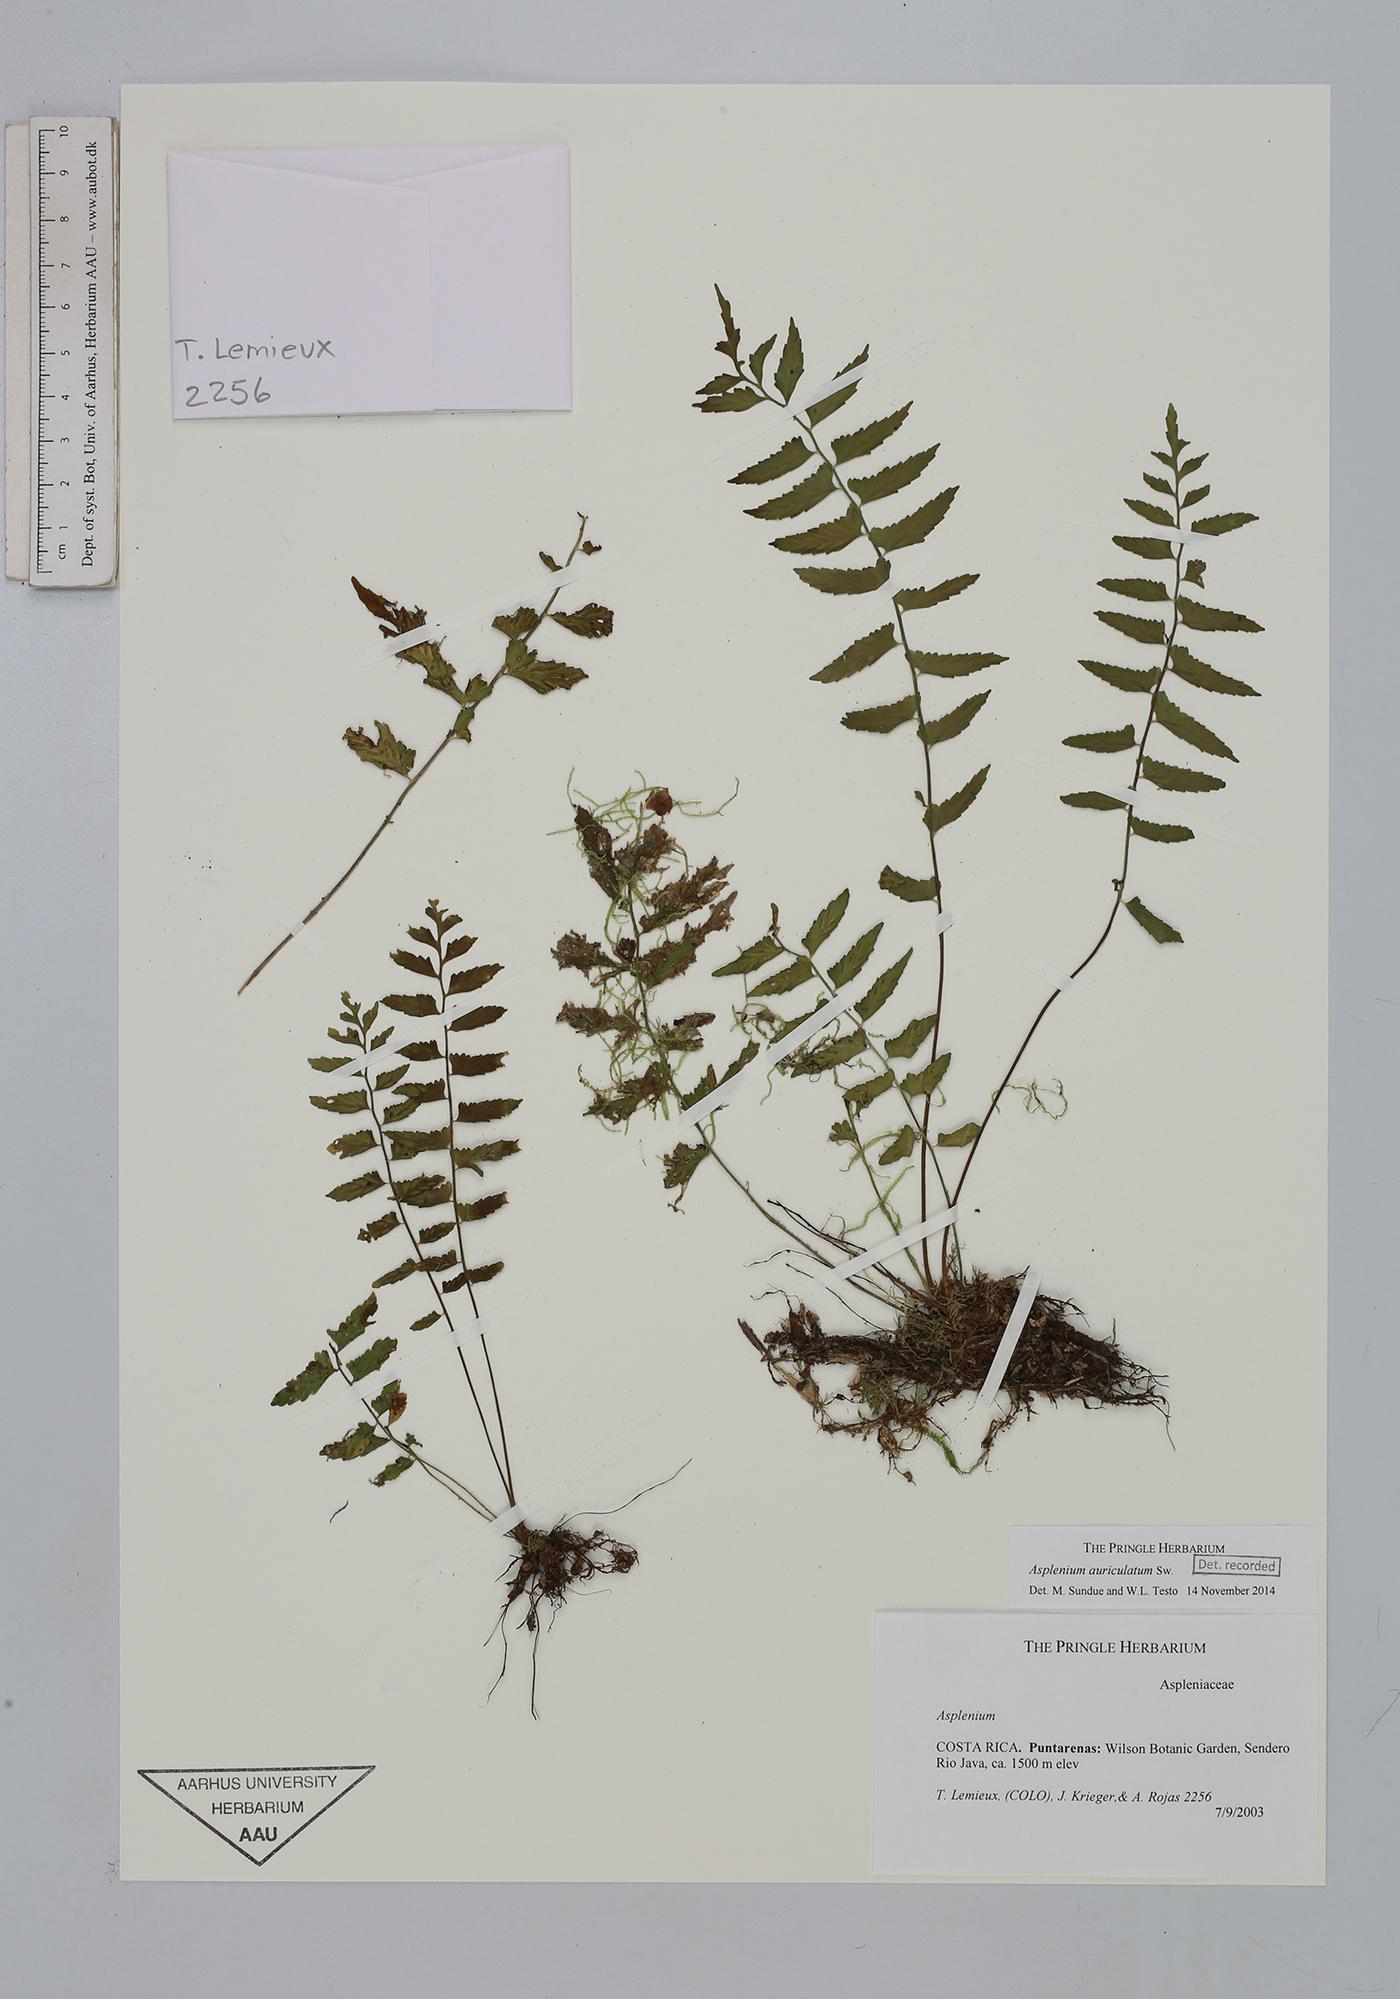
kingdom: Plantae
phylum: Tracheophyta
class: Polypodiopsida
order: Polypodiales
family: Aspleniaceae
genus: Asplenium
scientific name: Asplenium auriculatum
